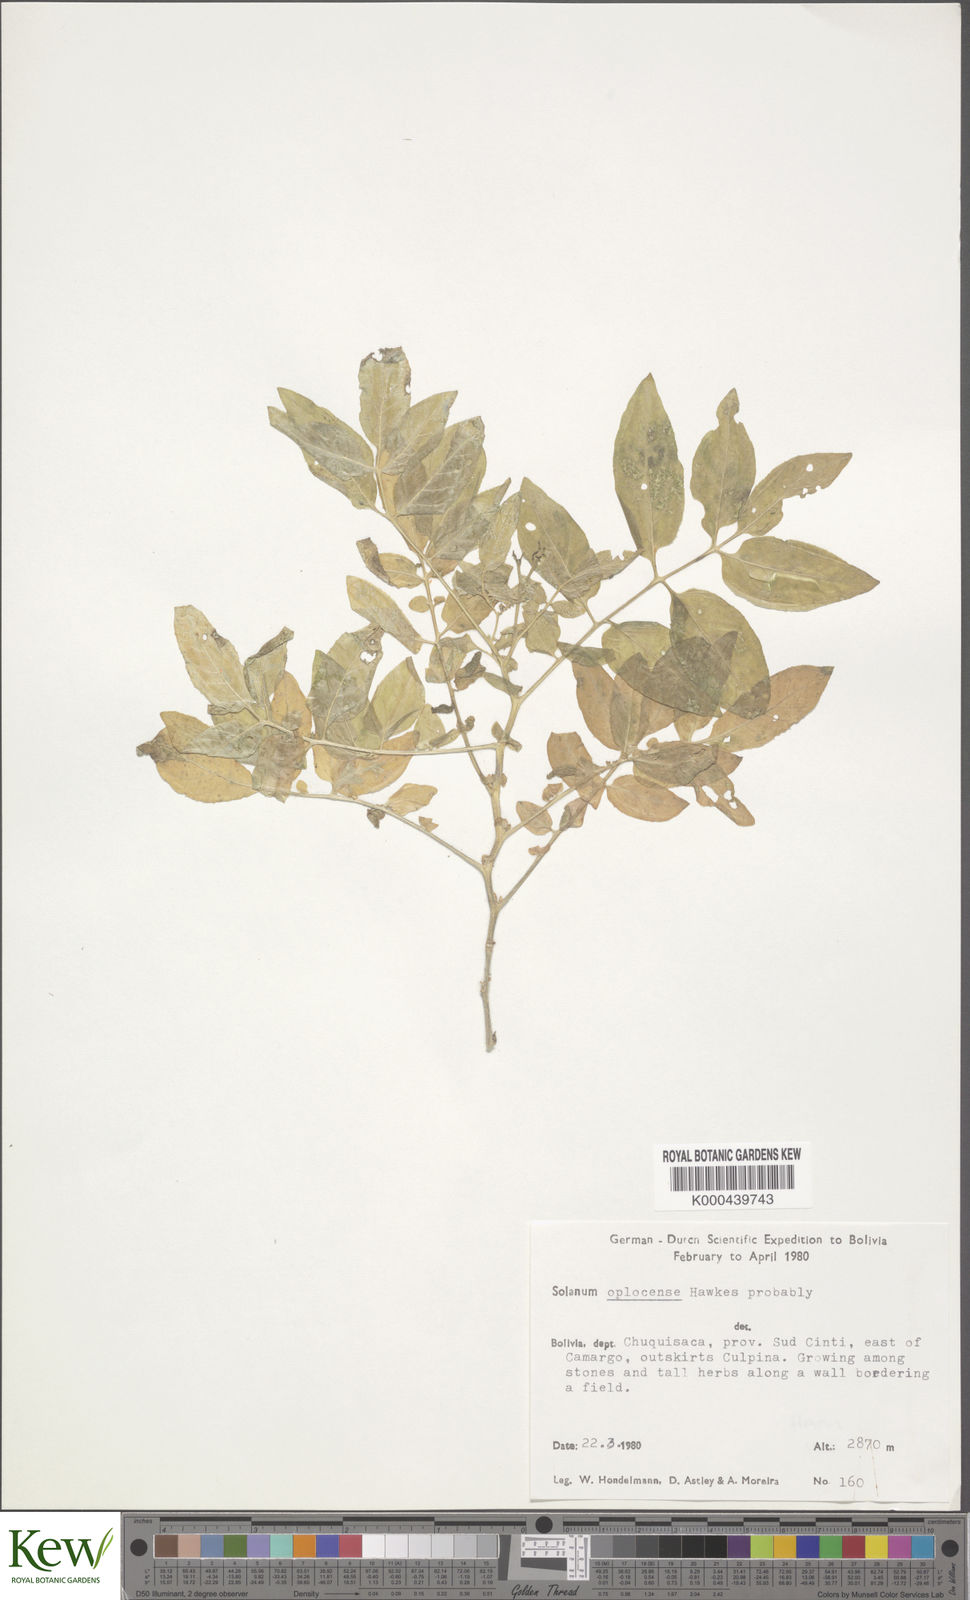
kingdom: Plantae
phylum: Tracheophyta
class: Magnoliopsida
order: Solanales
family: Solanaceae
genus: Solanum
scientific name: Solanum brevicaule
